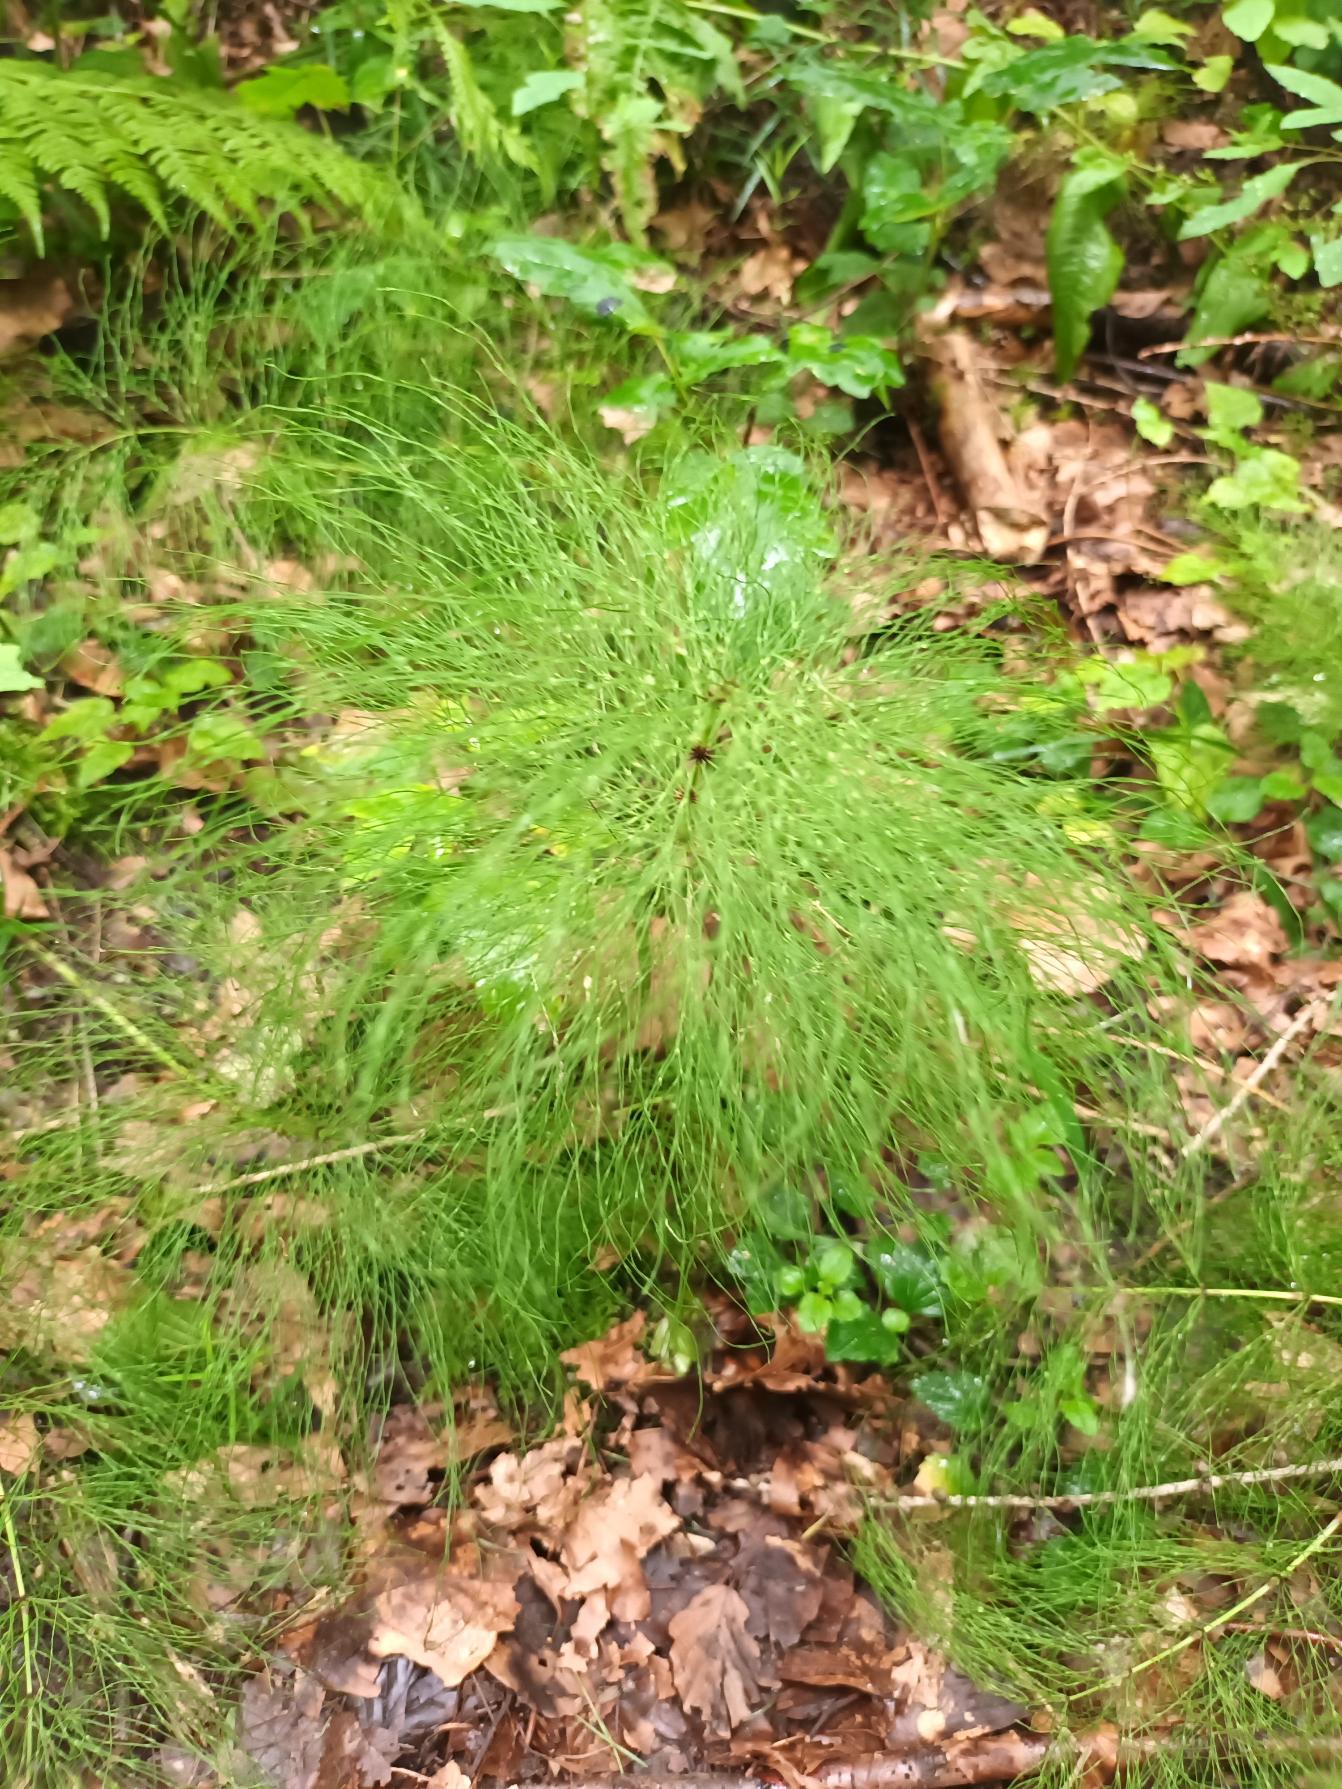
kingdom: Plantae
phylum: Tracheophyta
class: Polypodiopsida
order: Equisetales
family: Equisetaceae
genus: Equisetum
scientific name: Equisetum sylvaticum
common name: Skov-padderok
